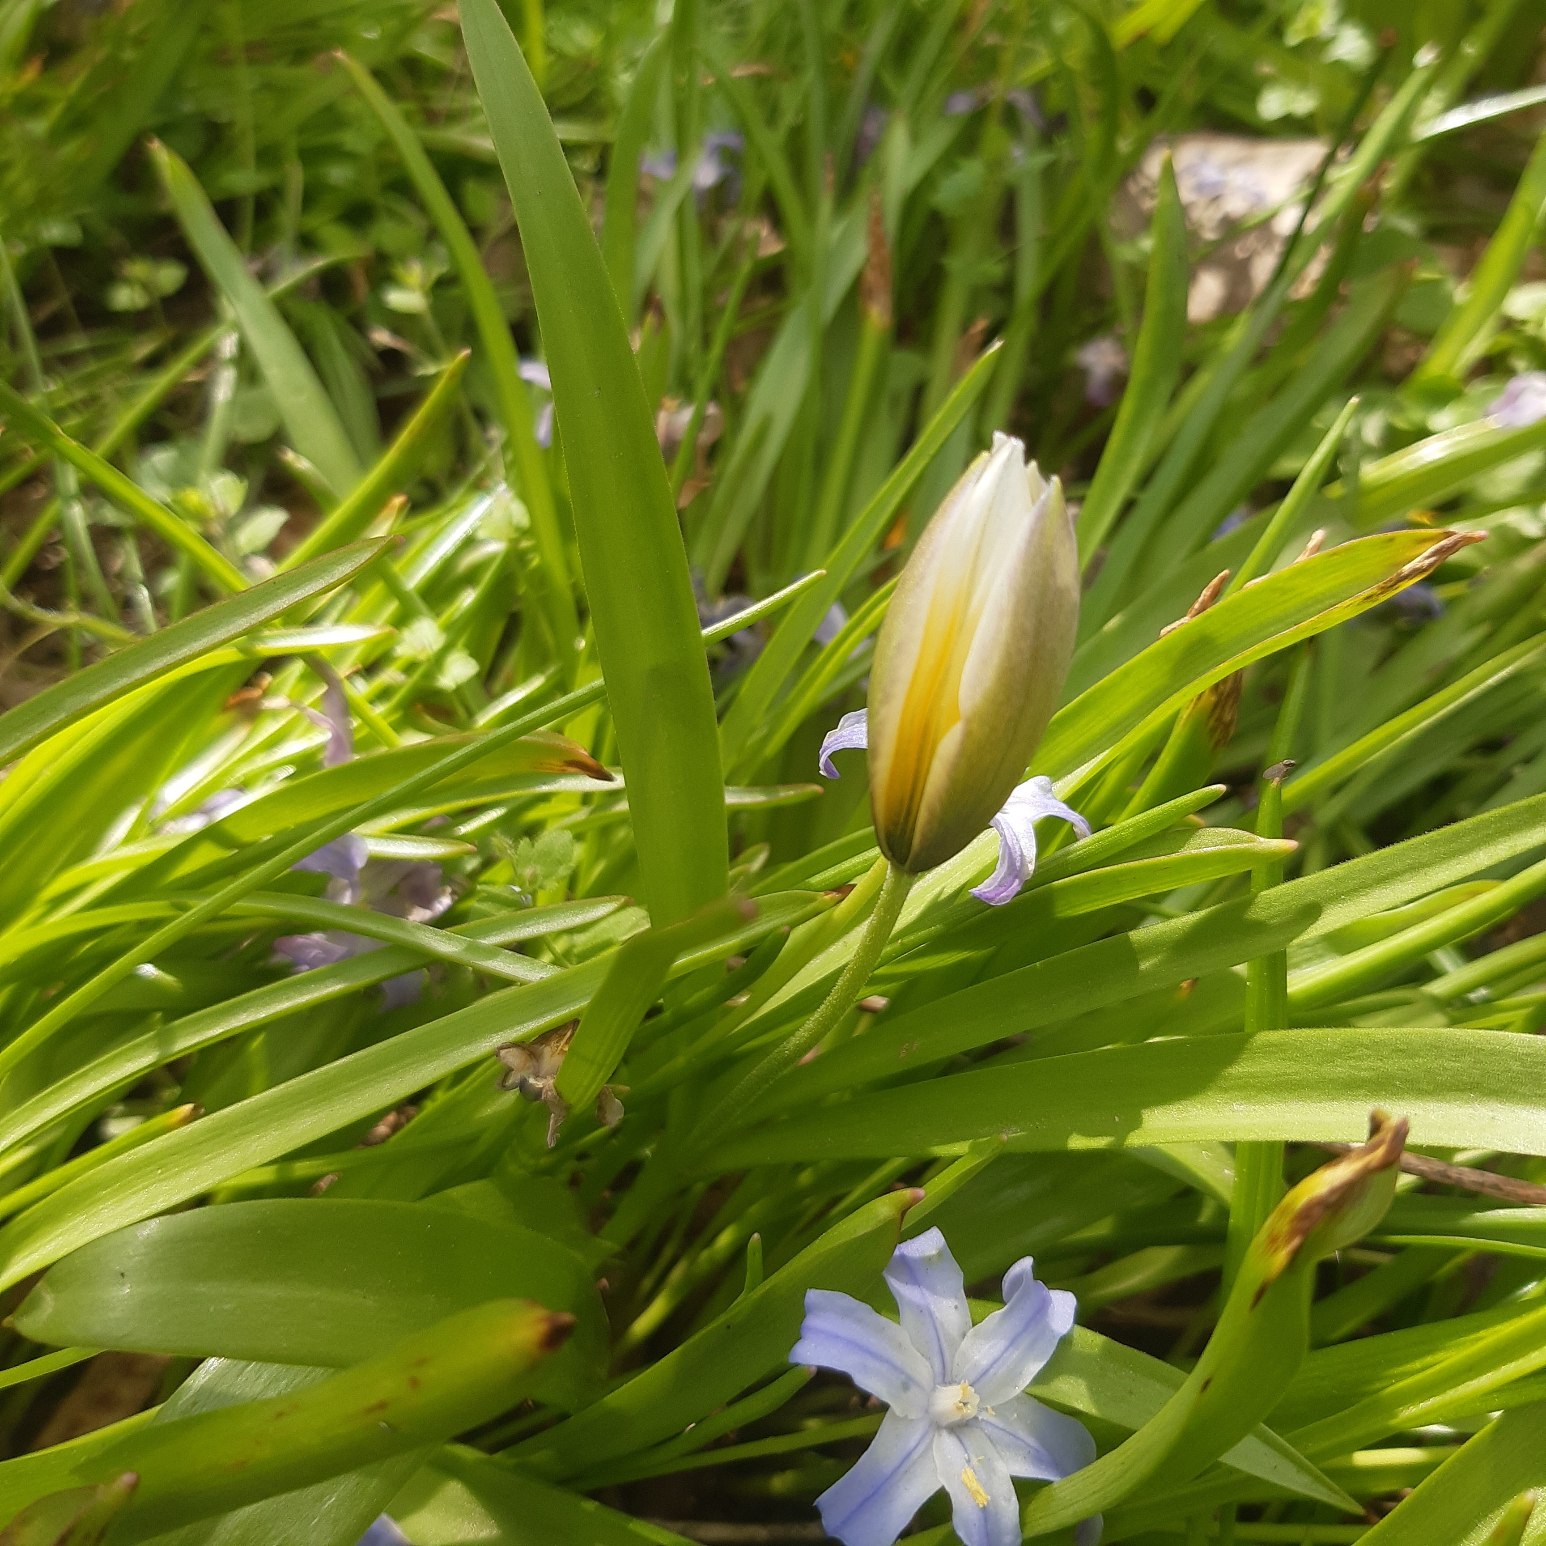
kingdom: Plantae
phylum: Tracheophyta
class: Liliopsida
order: Liliales
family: Liliaceae
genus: Tulipa
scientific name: Tulipa urumiensis
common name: Skærm-tulipan
